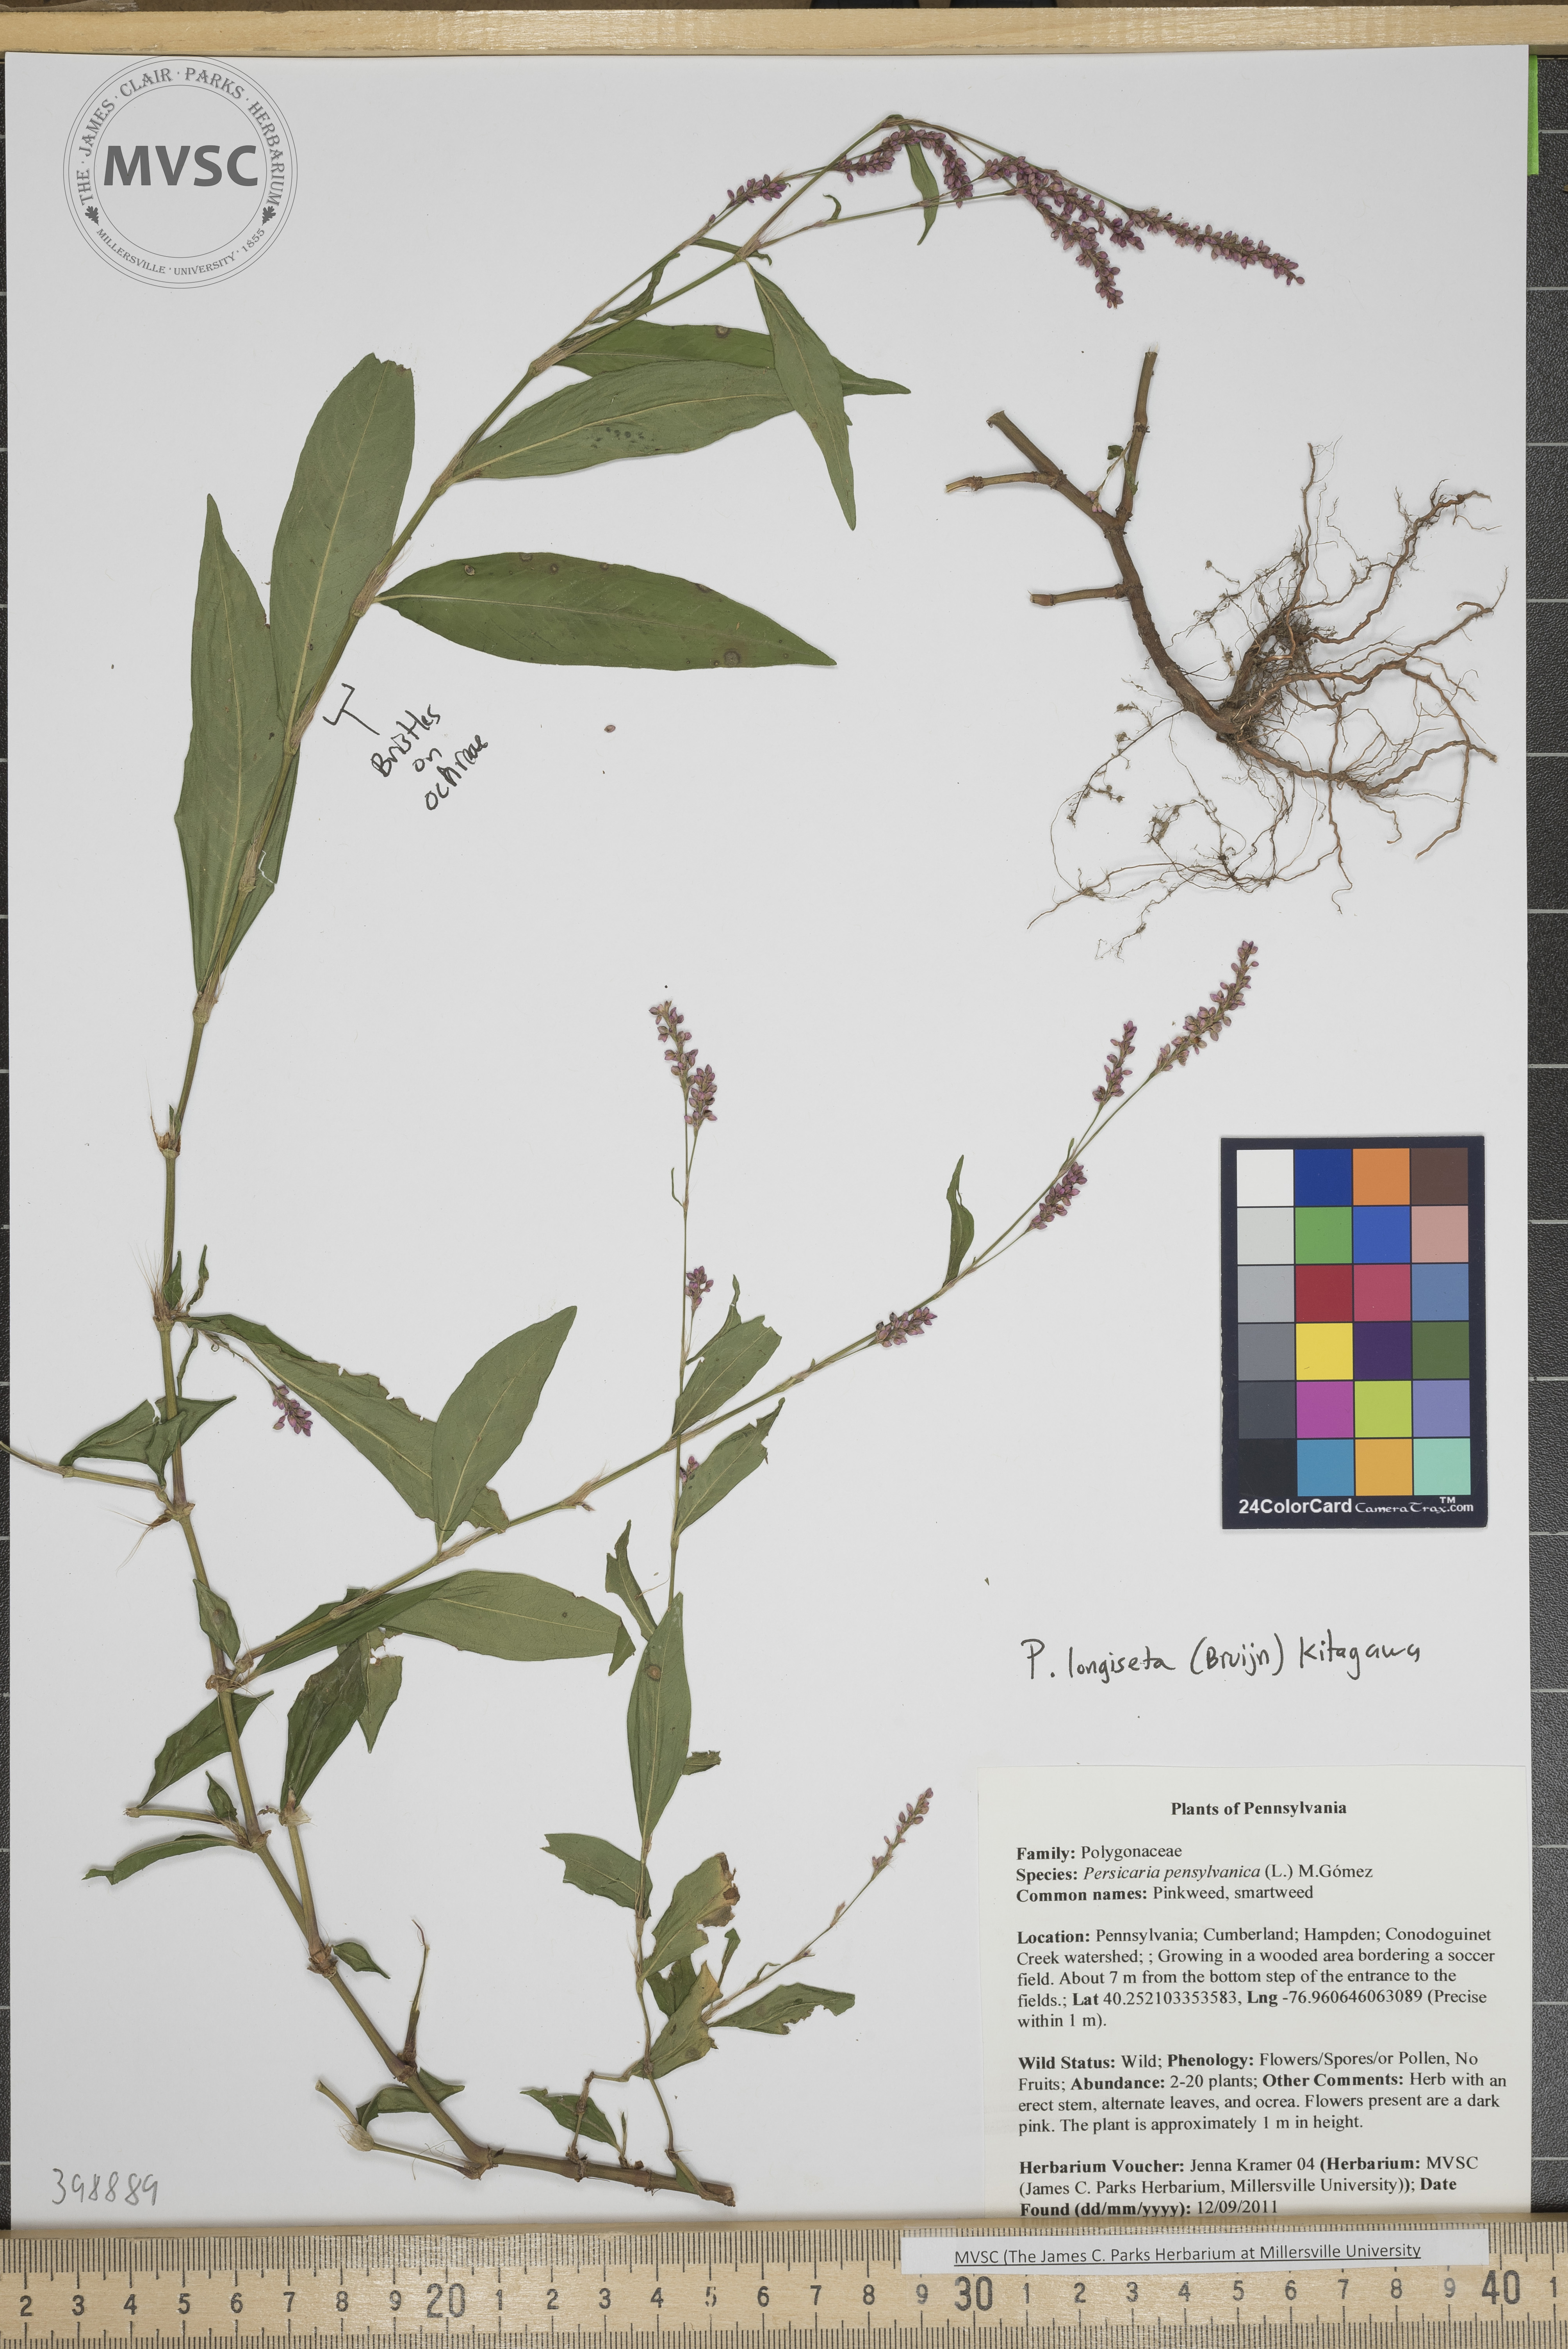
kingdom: Plantae
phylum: Tracheophyta
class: Magnoliopsida
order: Caryophyllales
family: Polygonaceae
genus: Persicaria
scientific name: Persicaria longiseta
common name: Low smartweed
